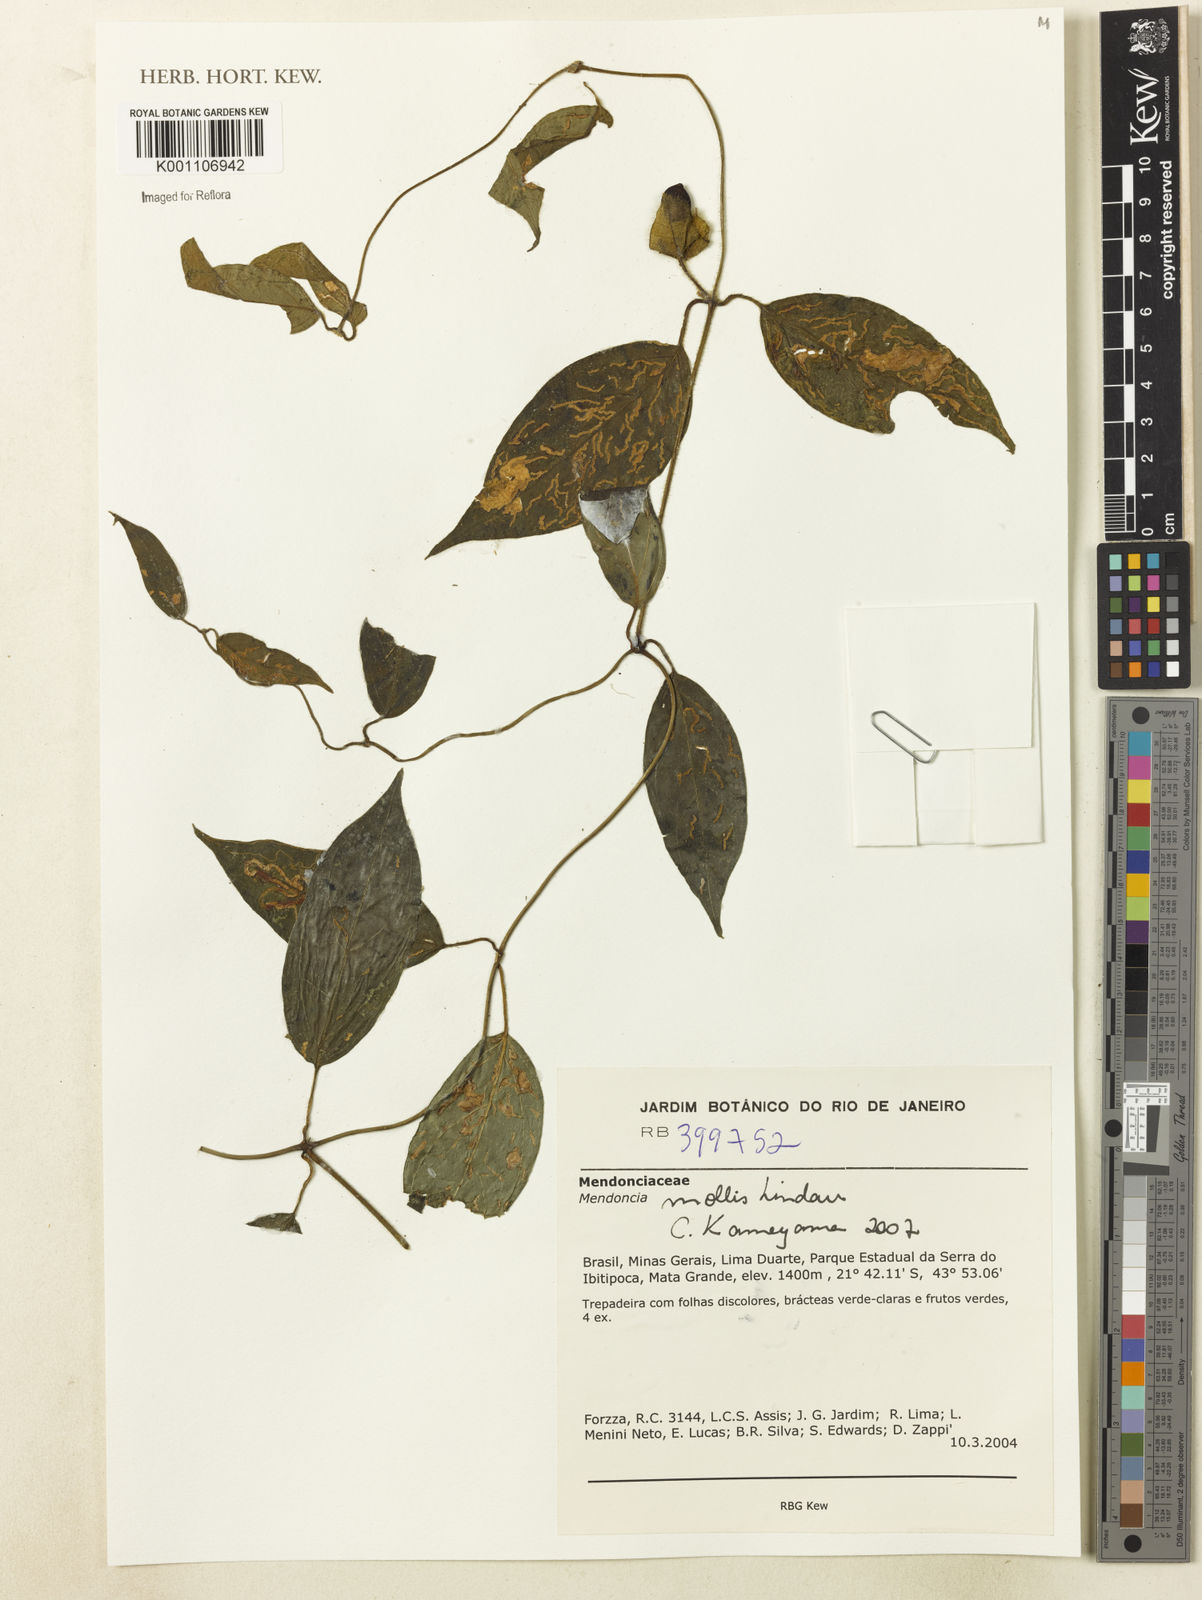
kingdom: Plantae
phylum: Tracheophyta
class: Magnoliopsida
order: Lamiales
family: Acanthaceae
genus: Mendoncia
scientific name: Mendoncia mollis
